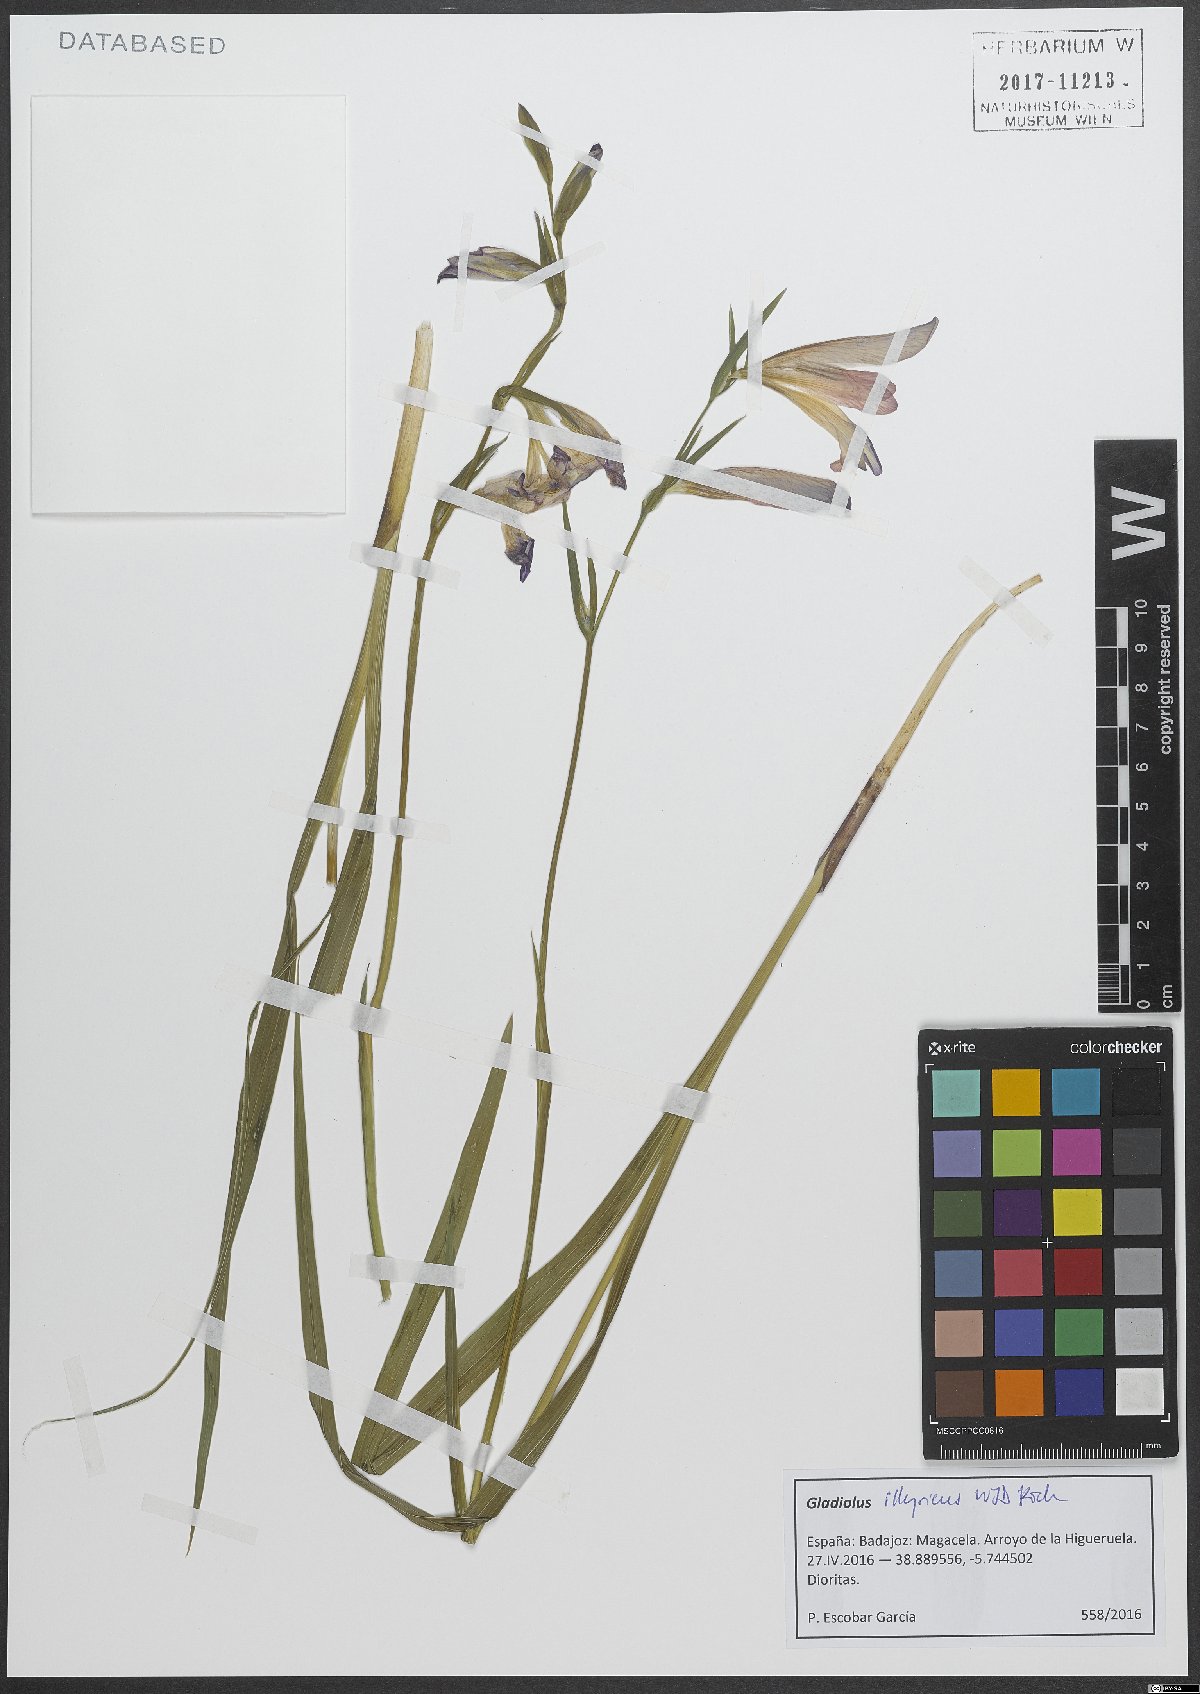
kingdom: Plantae
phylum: Tracheophyta
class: Liliopsida
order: Asparagales
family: Iridaceae
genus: Gladiolus
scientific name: Gladiolus illyricus
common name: Wild gladiolus
